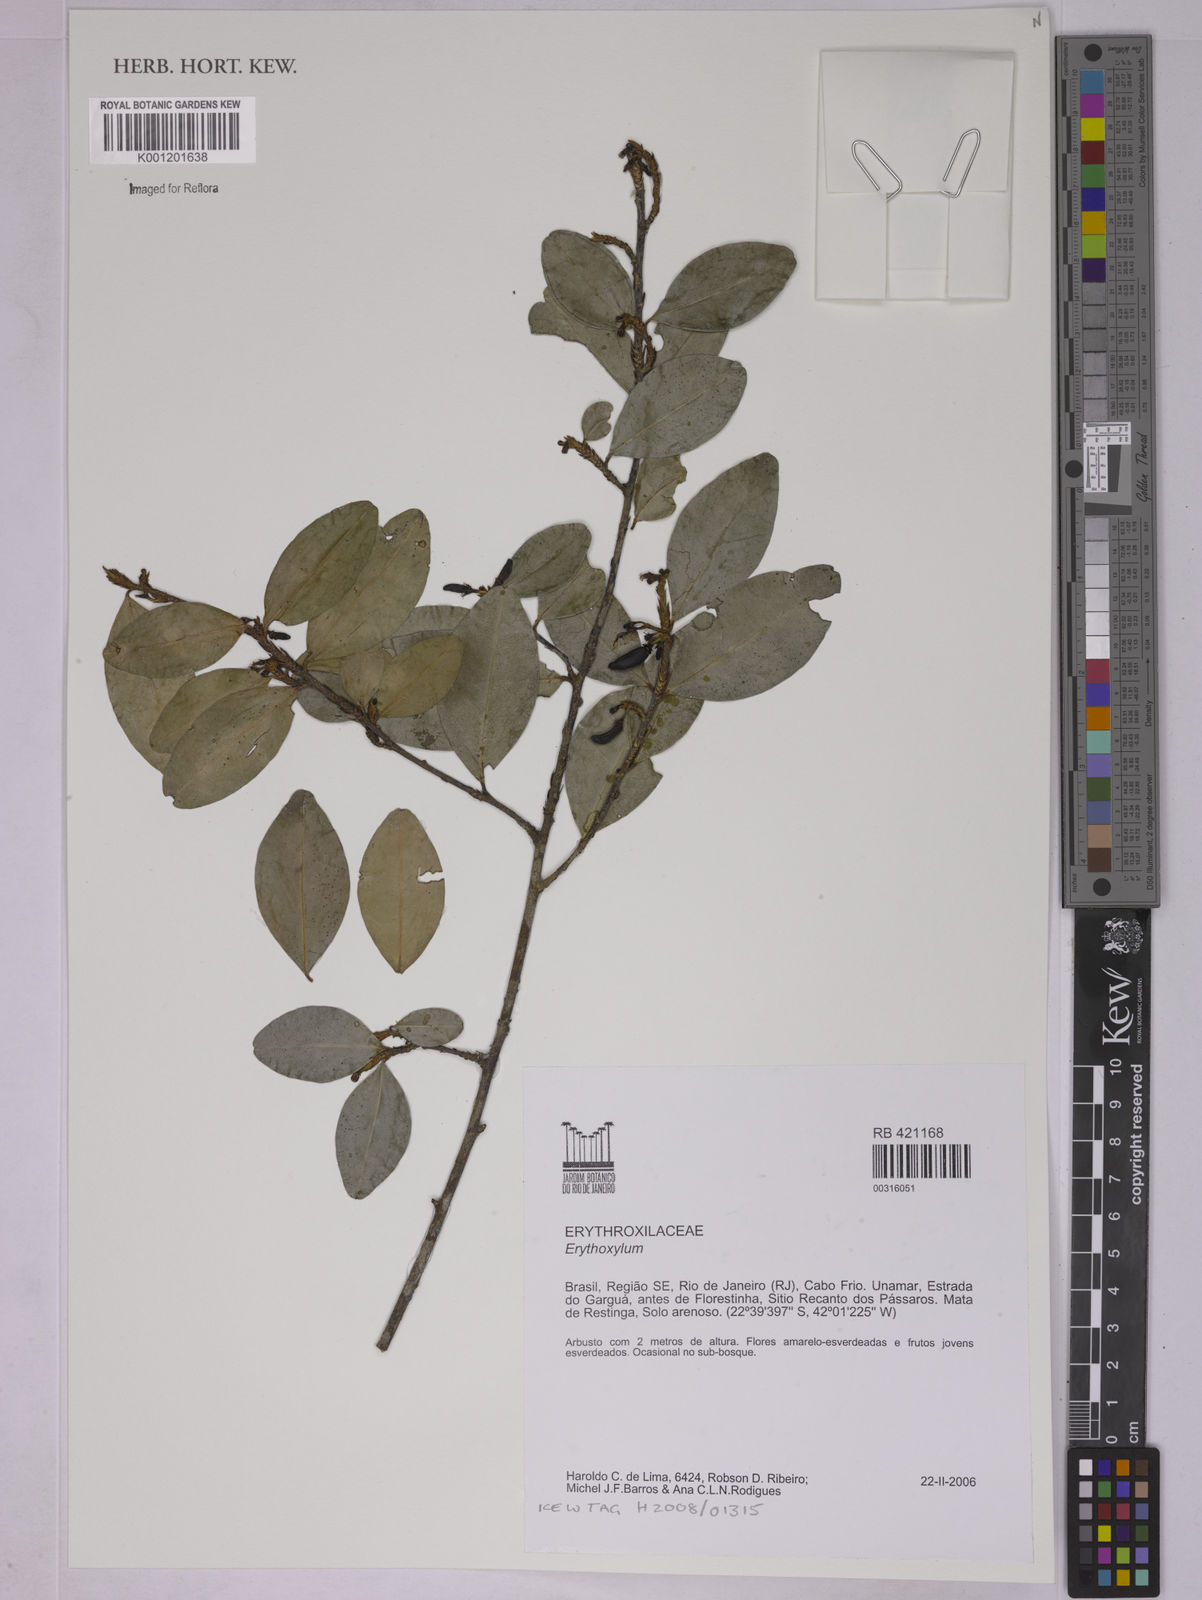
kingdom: Plantae
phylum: Tracheophyta
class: Magnoliopsida
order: Malpighiales
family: Erythroxylaceae
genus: Erythroxylum
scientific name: Erythroxylum
